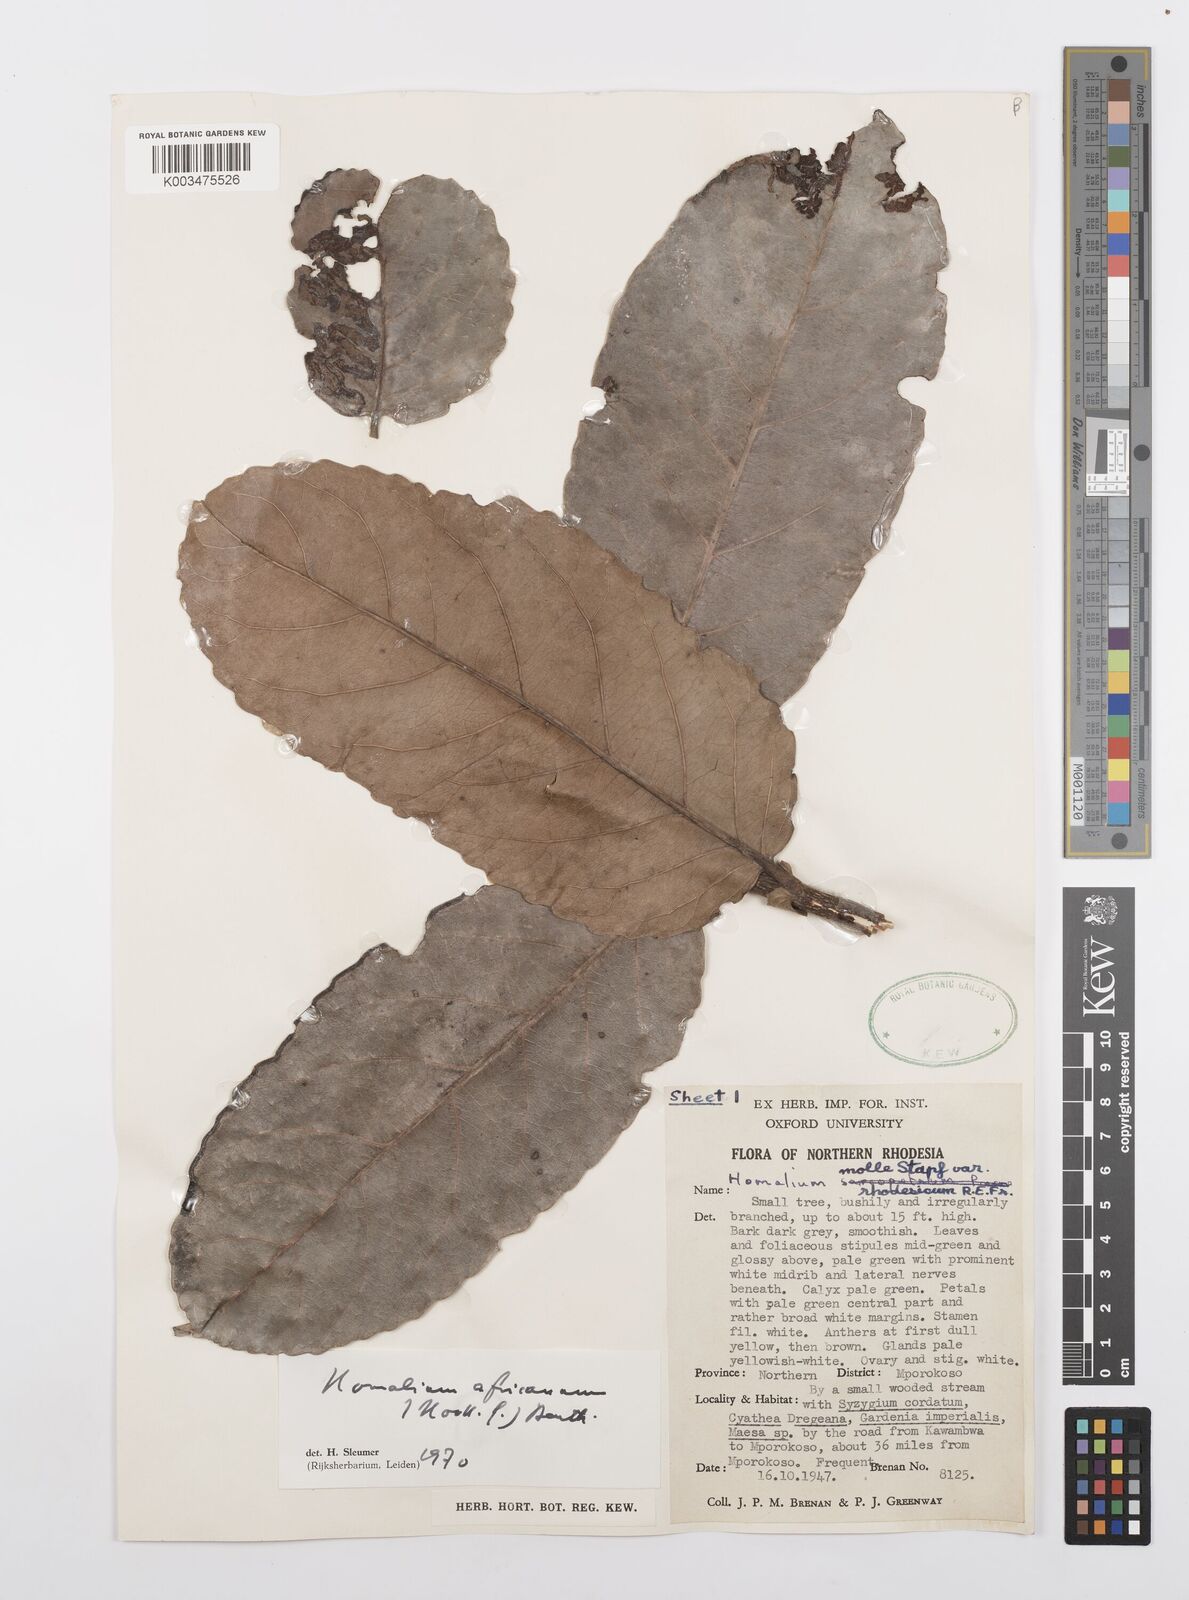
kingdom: Plantae
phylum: Tracheophyta
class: Magnoliopsida
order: Malpighiales
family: Salicaceae
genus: Homalium
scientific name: Homalium africanum
